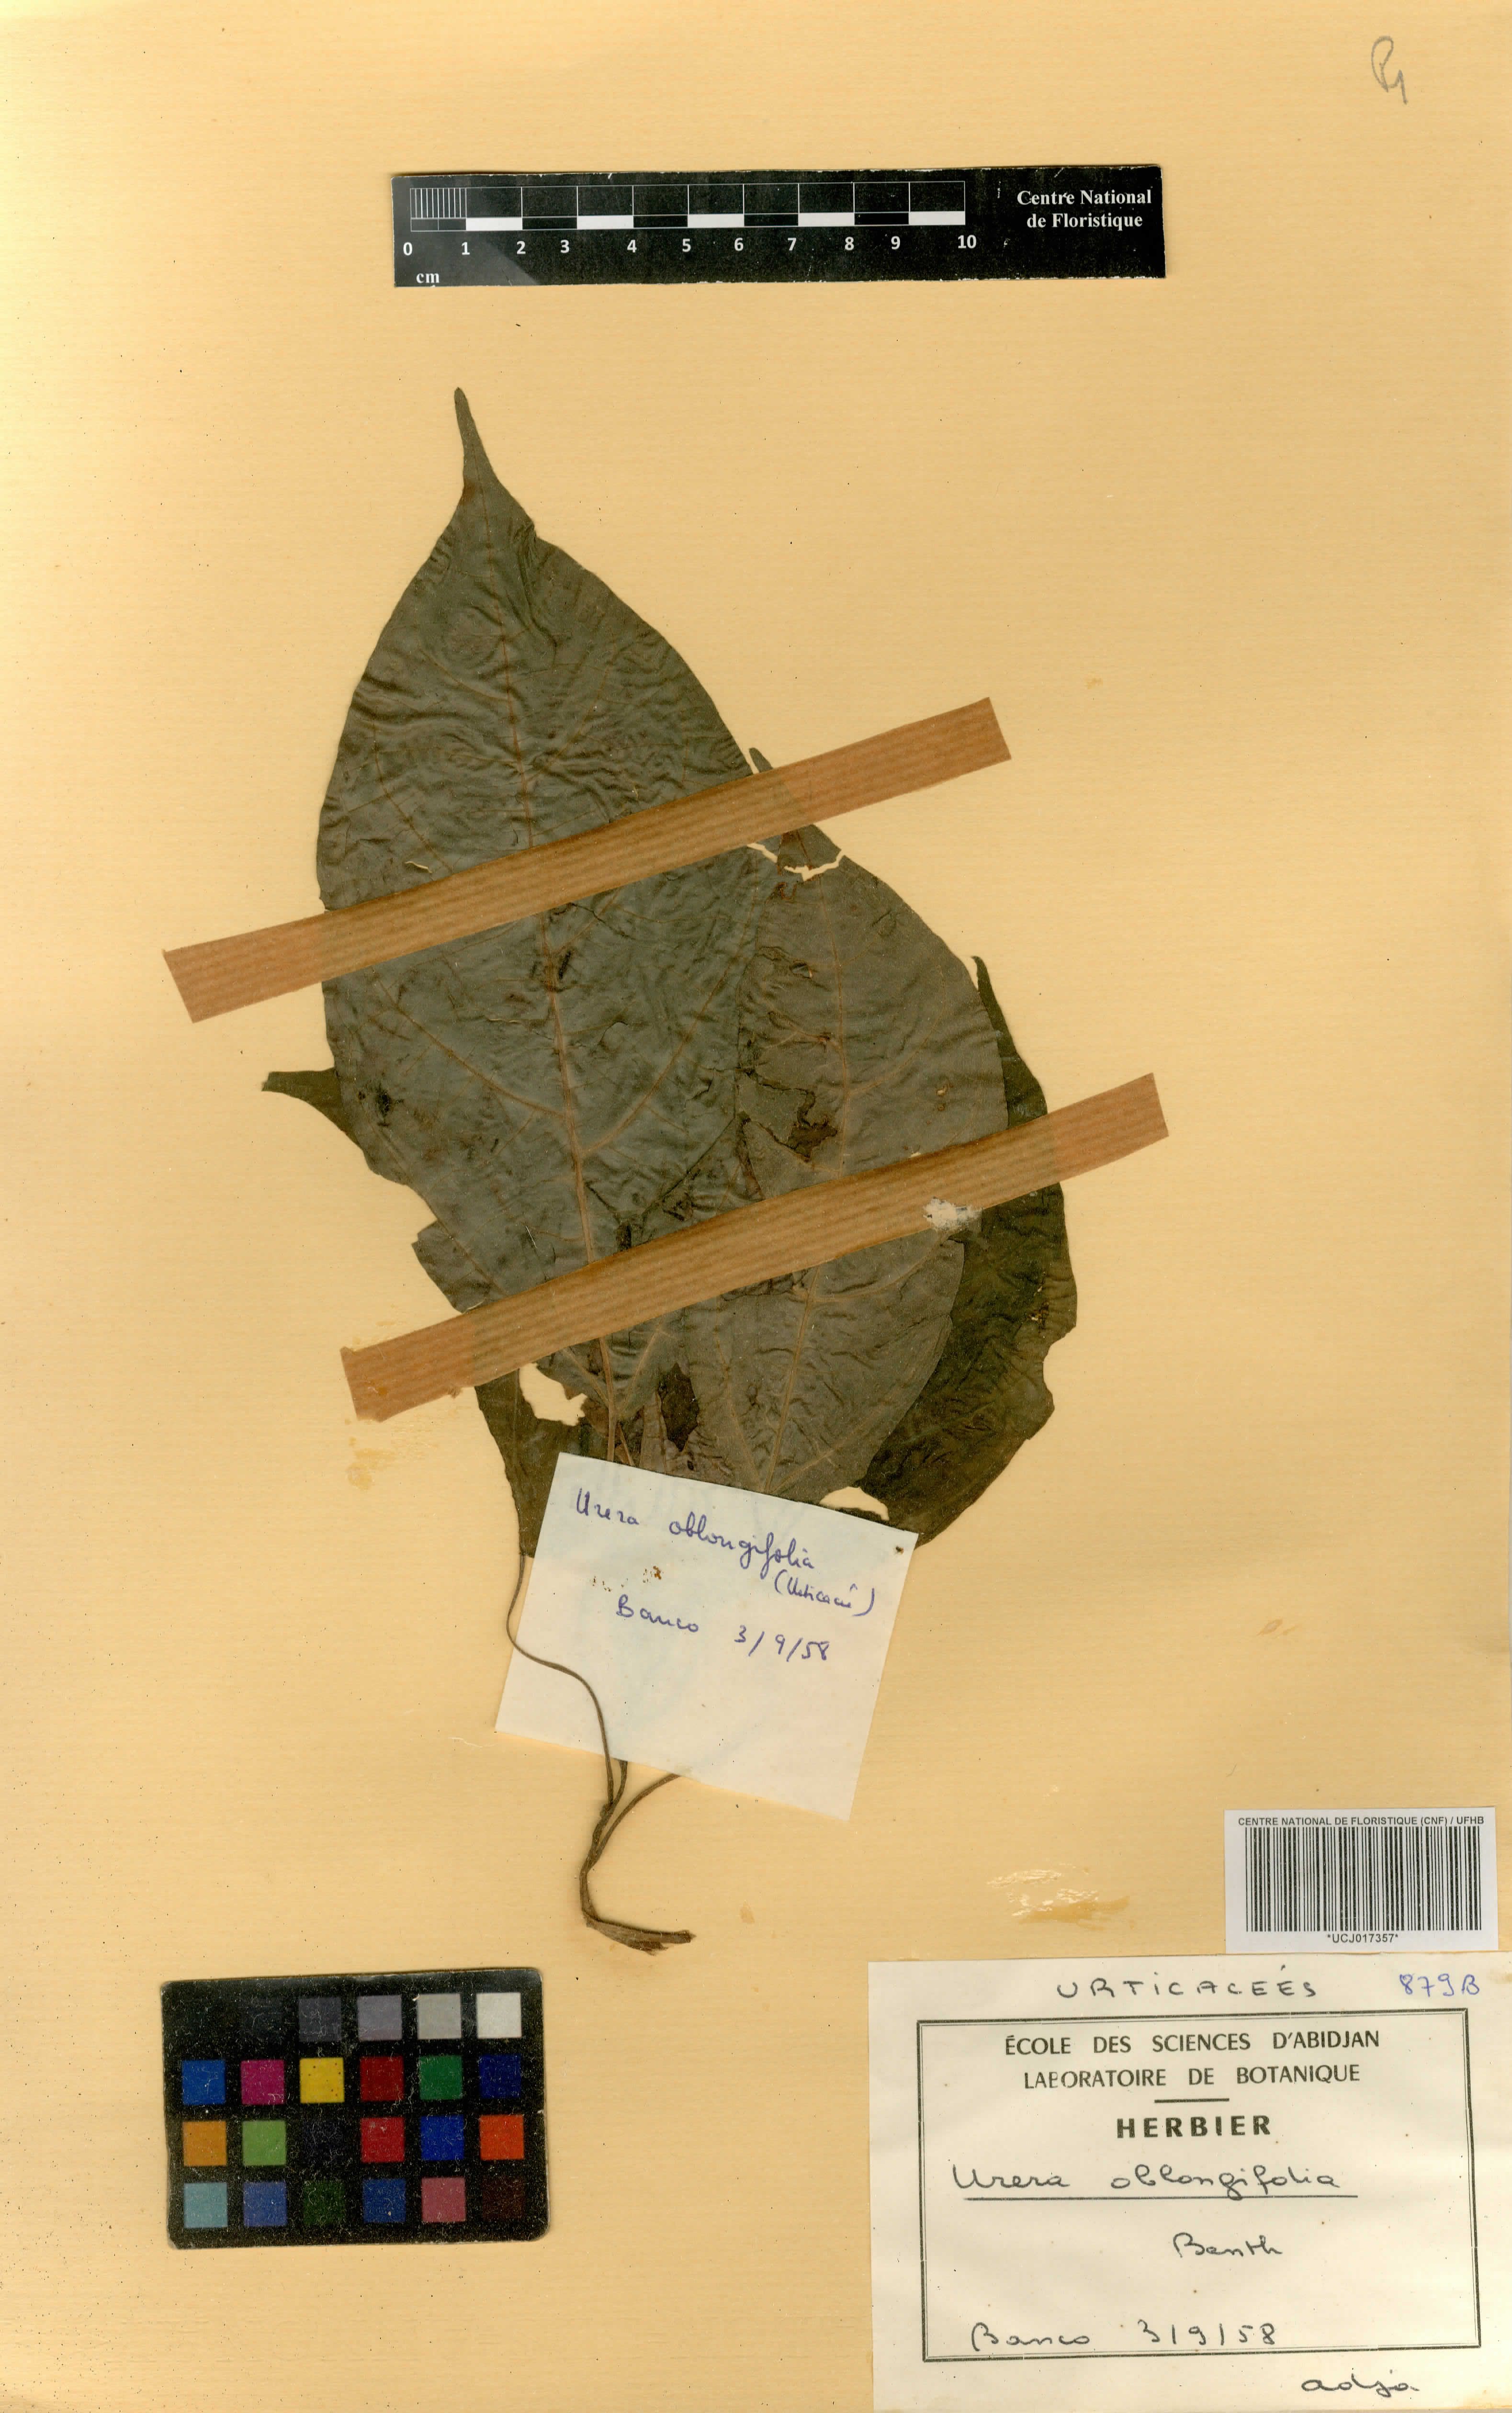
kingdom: Plantae
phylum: Tracheophyta
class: Magnoliopsida
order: Rosales
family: Urticaceae
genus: Scepocarpus
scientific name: Scepocarpus oblongifolius
